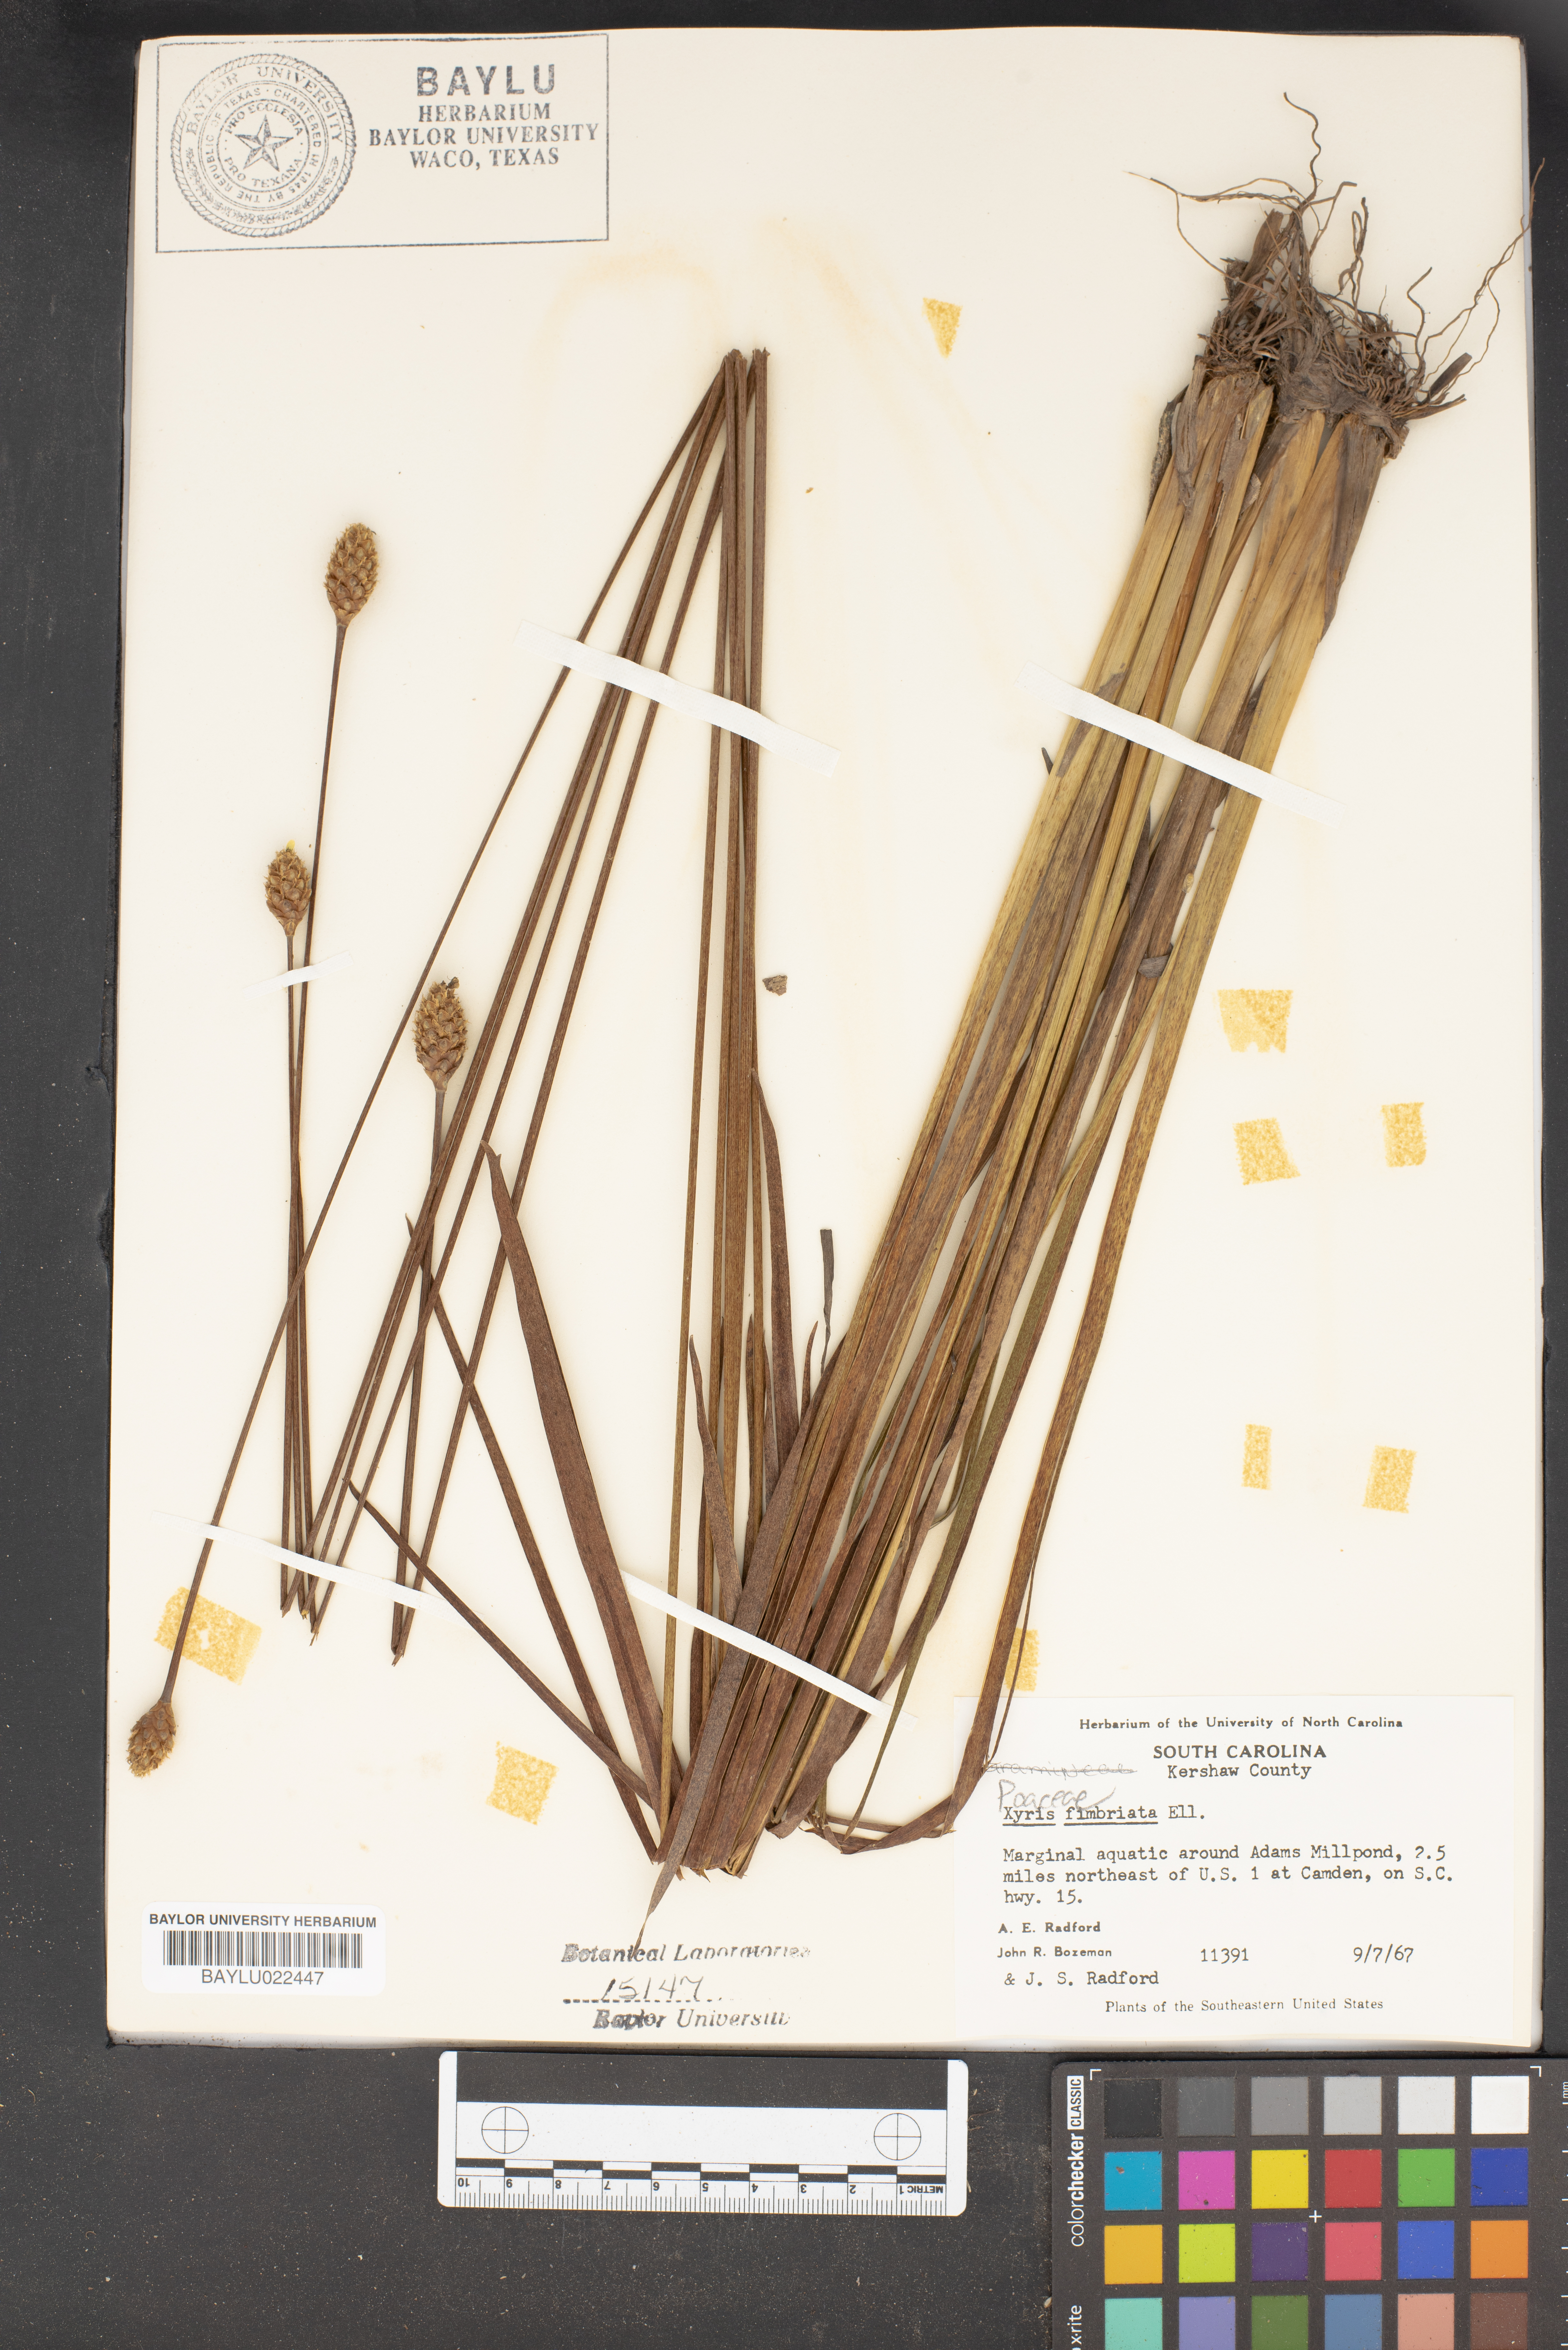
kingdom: Plantae
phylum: Tracheophyta
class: Liliopsida
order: Poales
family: Xyridaceae
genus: Xyris
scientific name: Xyris fimbriata
